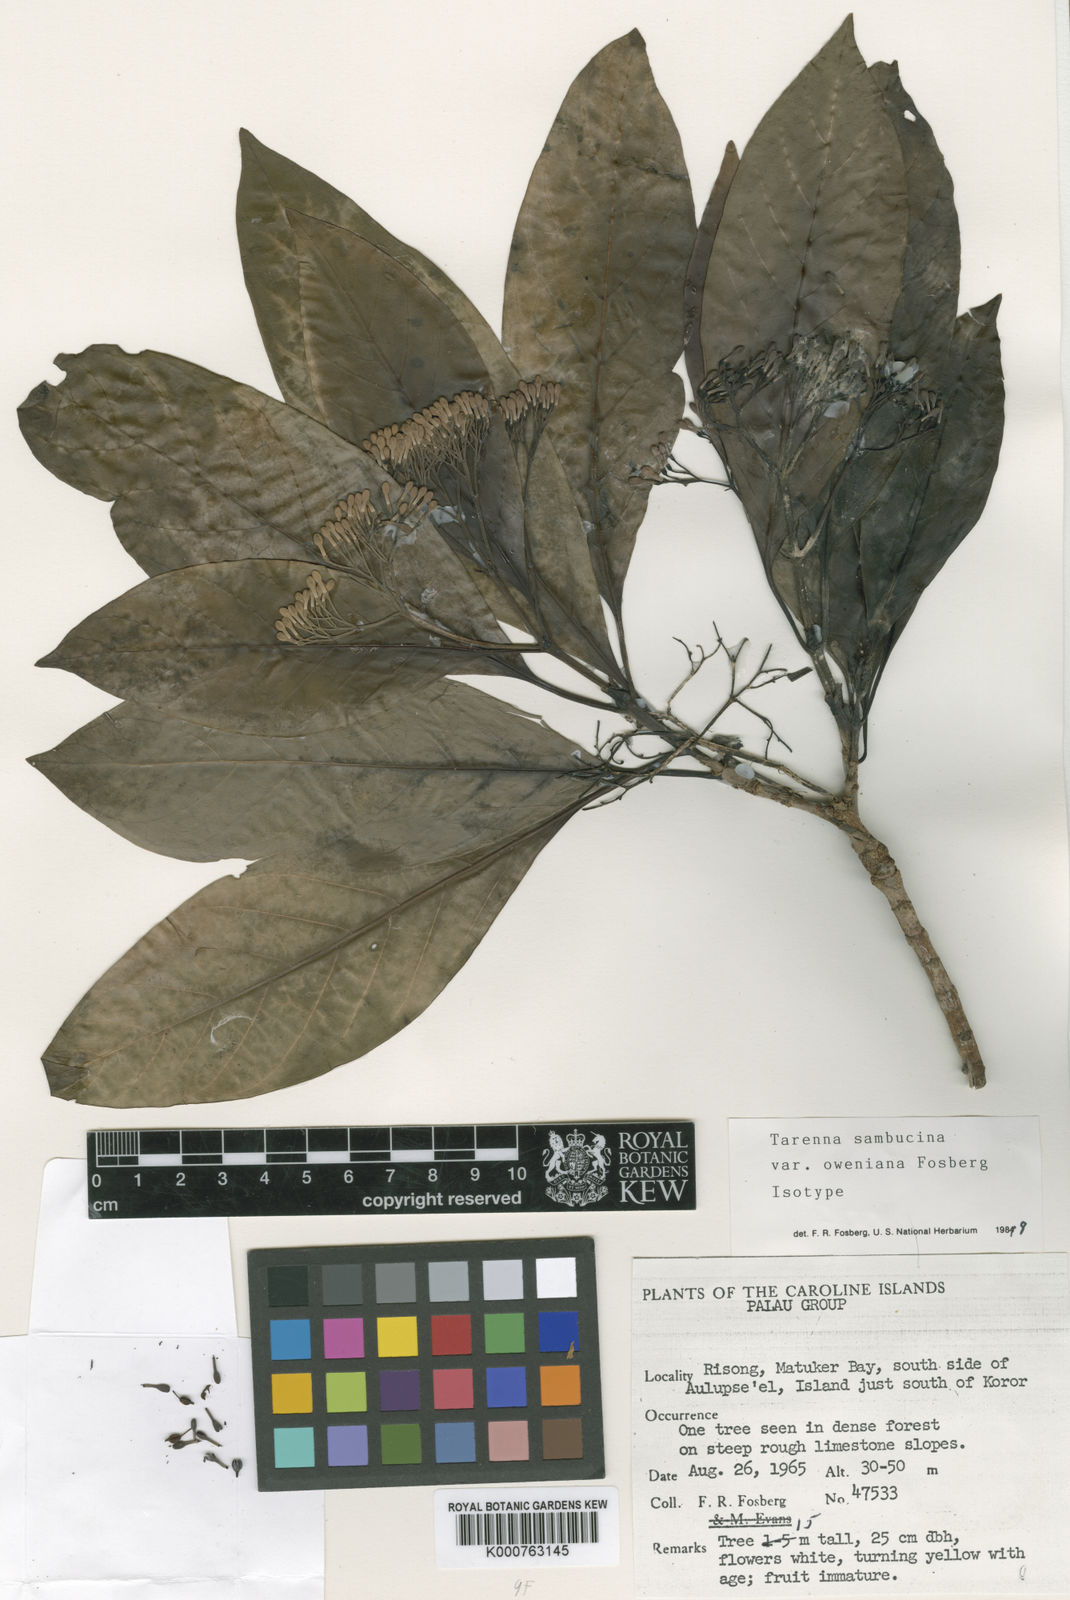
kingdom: Plantae
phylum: Tracheophyta
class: Magnoliopsida
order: Gentianales
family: Rubiaceae
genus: Tarenna
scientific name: Tarenna sambucina
